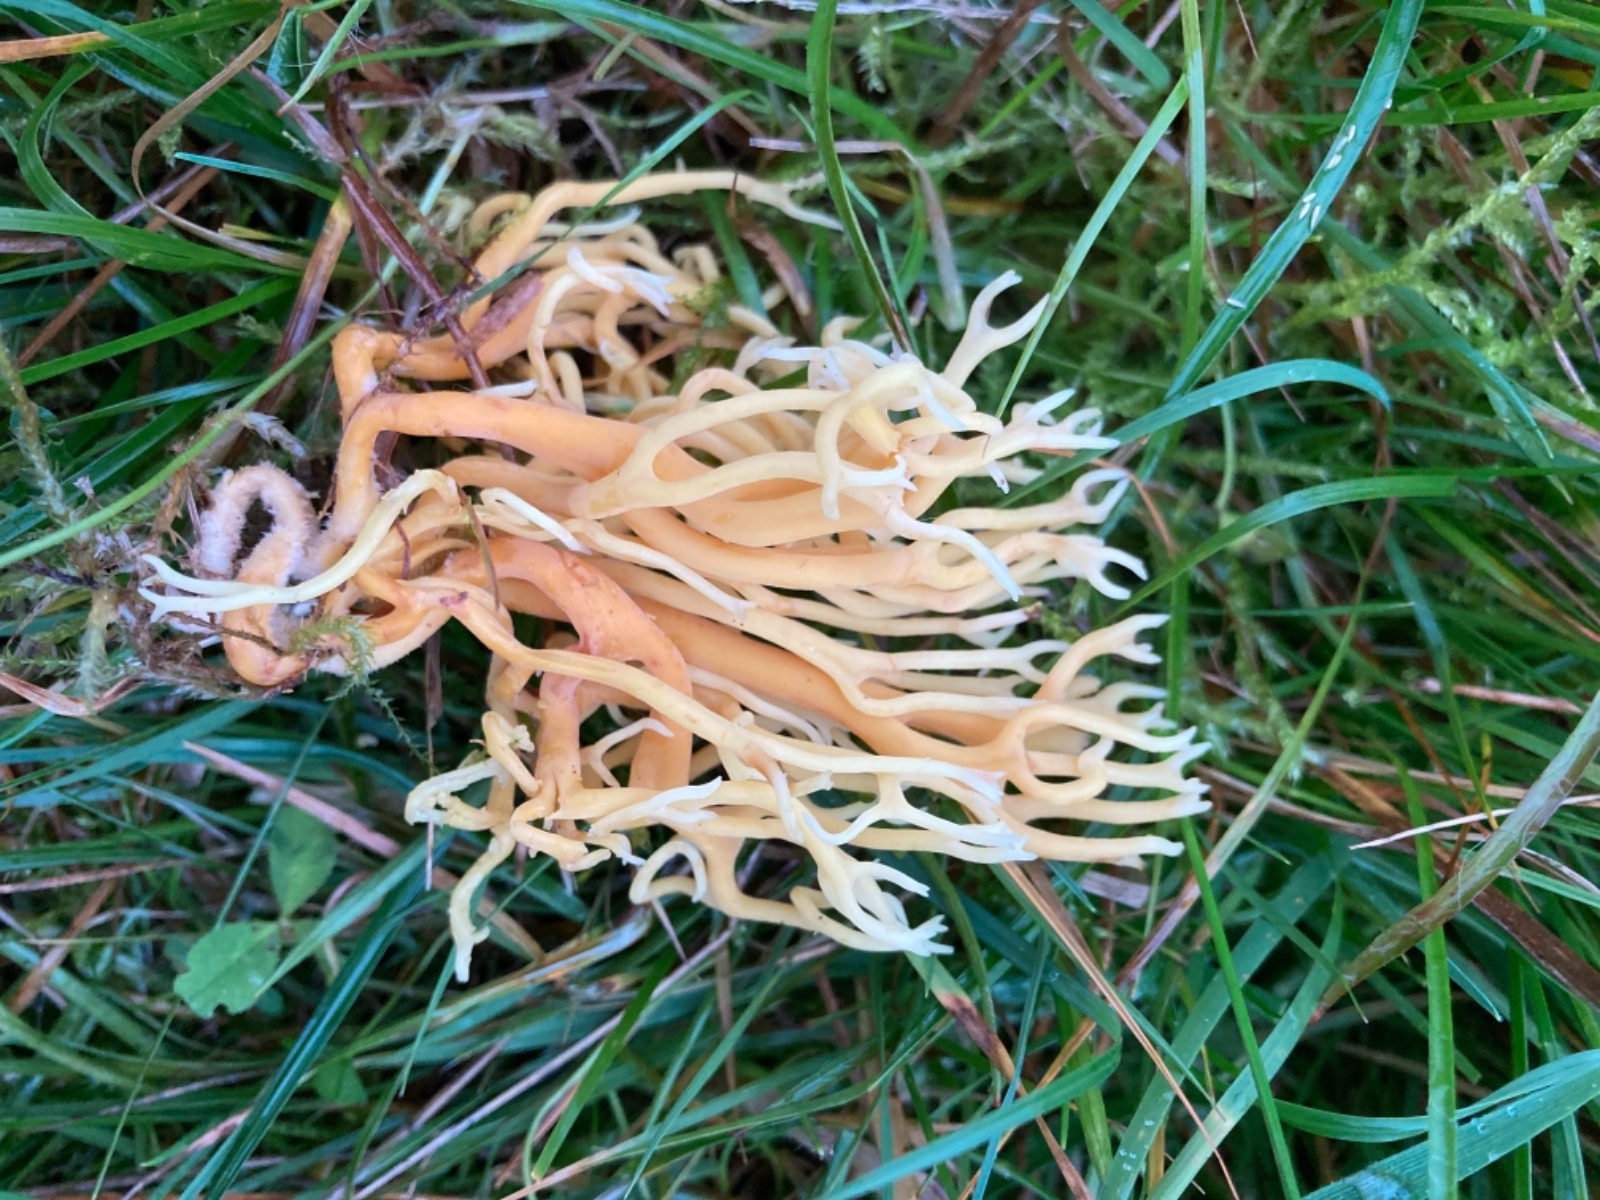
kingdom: Fungi
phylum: Basidiomycota
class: Agaricomycetes
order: Agaricales
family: Clavariaceae
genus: Clavulinopsis
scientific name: Clavulinopsis corniculata
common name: eng-køllesvamp
